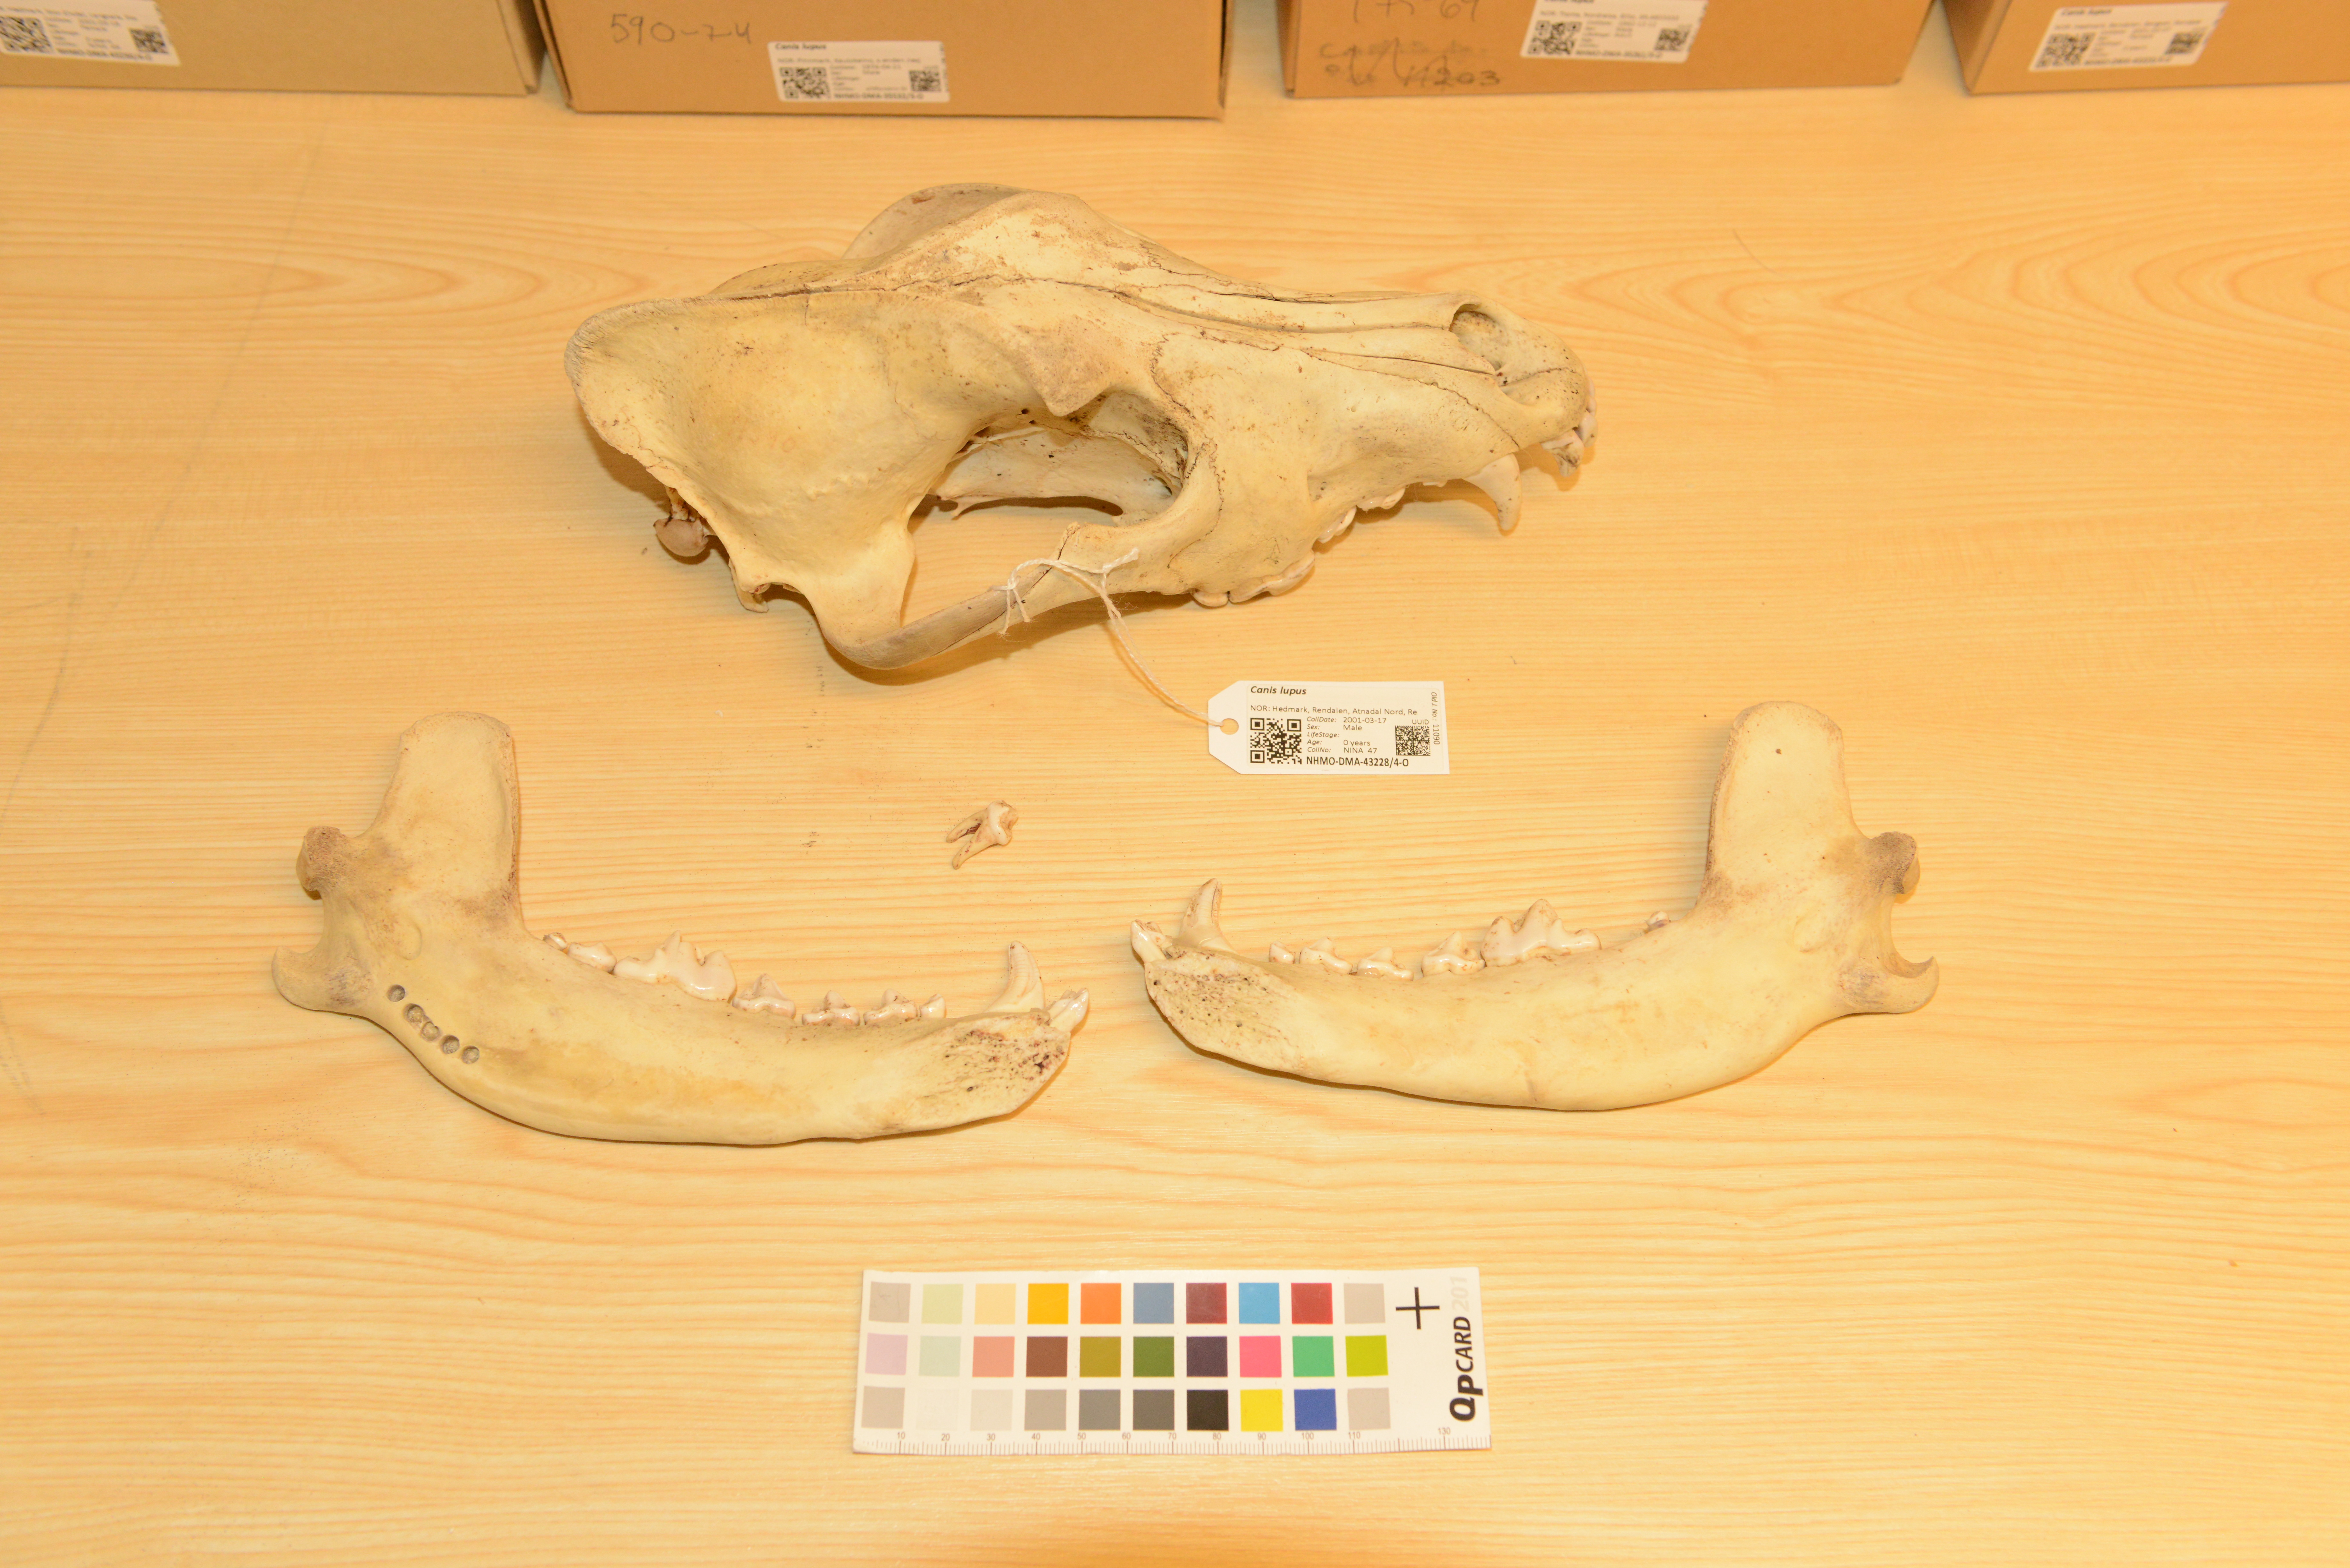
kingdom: Animalia
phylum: Chordata
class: Mammalia
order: Carnivora
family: Canidae
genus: Canis
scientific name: Canis lupus
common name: Gray wolf
